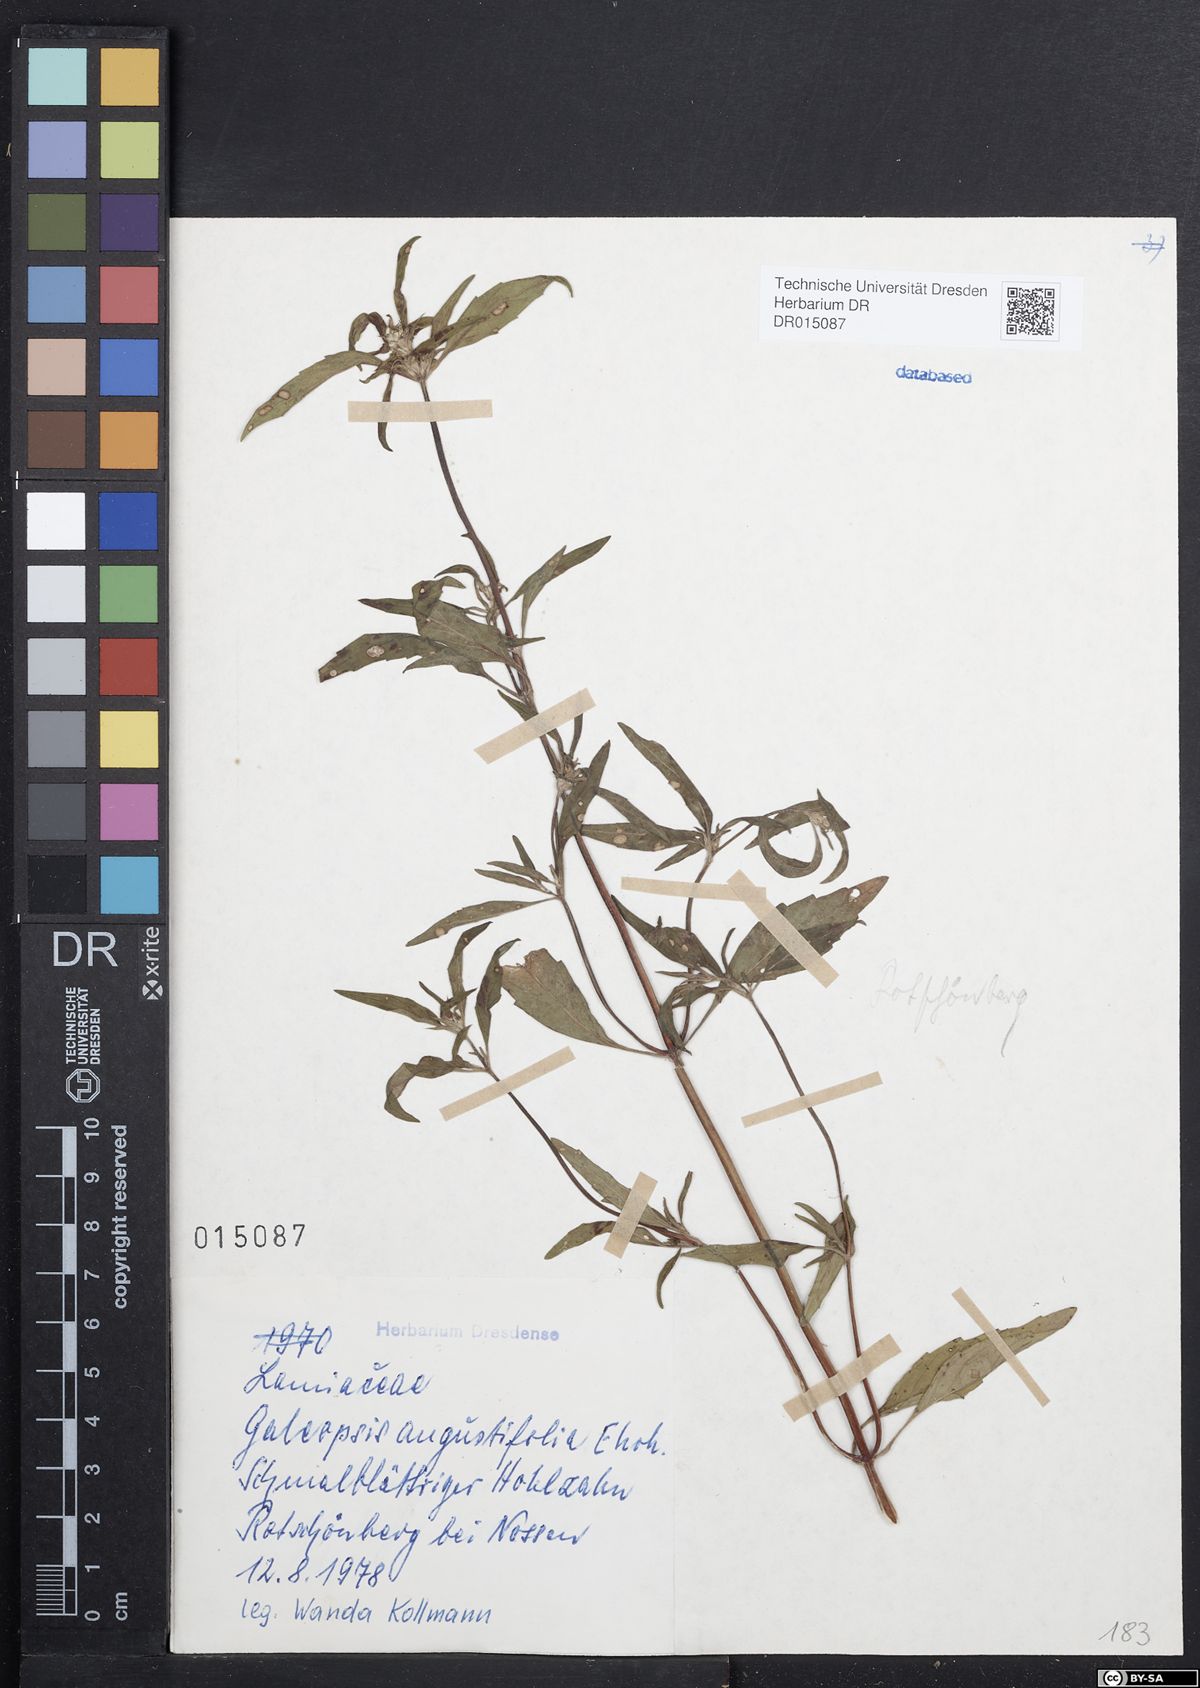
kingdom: Plantae
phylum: Tracheophyta
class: Magnoliopsida
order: Lamiales
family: Lamiaceae
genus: Galeopsis
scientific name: Galeopsis angustifolia
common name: Red hemp-nettle
